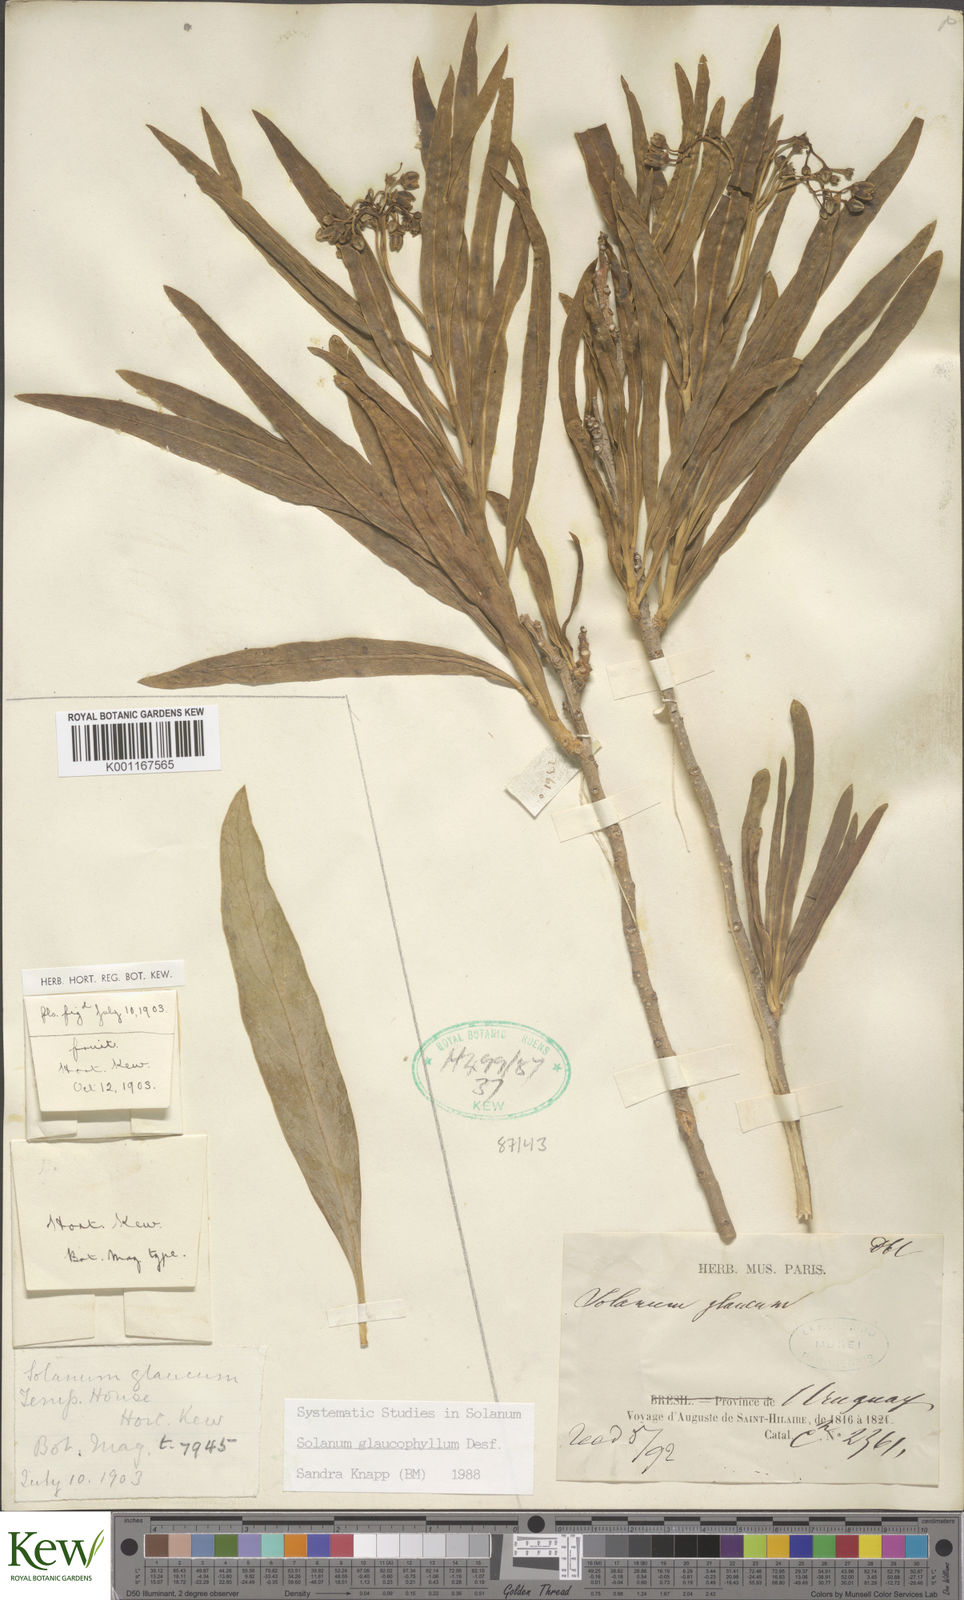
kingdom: Plantae
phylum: Tracheophyta
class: Magnoliopsida
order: Solanales
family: Solanaceae
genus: Solanum
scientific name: Solanum glaucophyllum
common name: Waxyleaf nightshade
